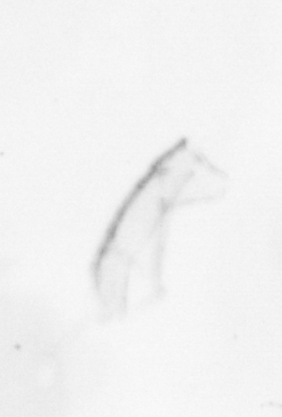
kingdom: Chromista
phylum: Ochrophyta
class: Bacillariophyceae
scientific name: Bacillariophyceae
